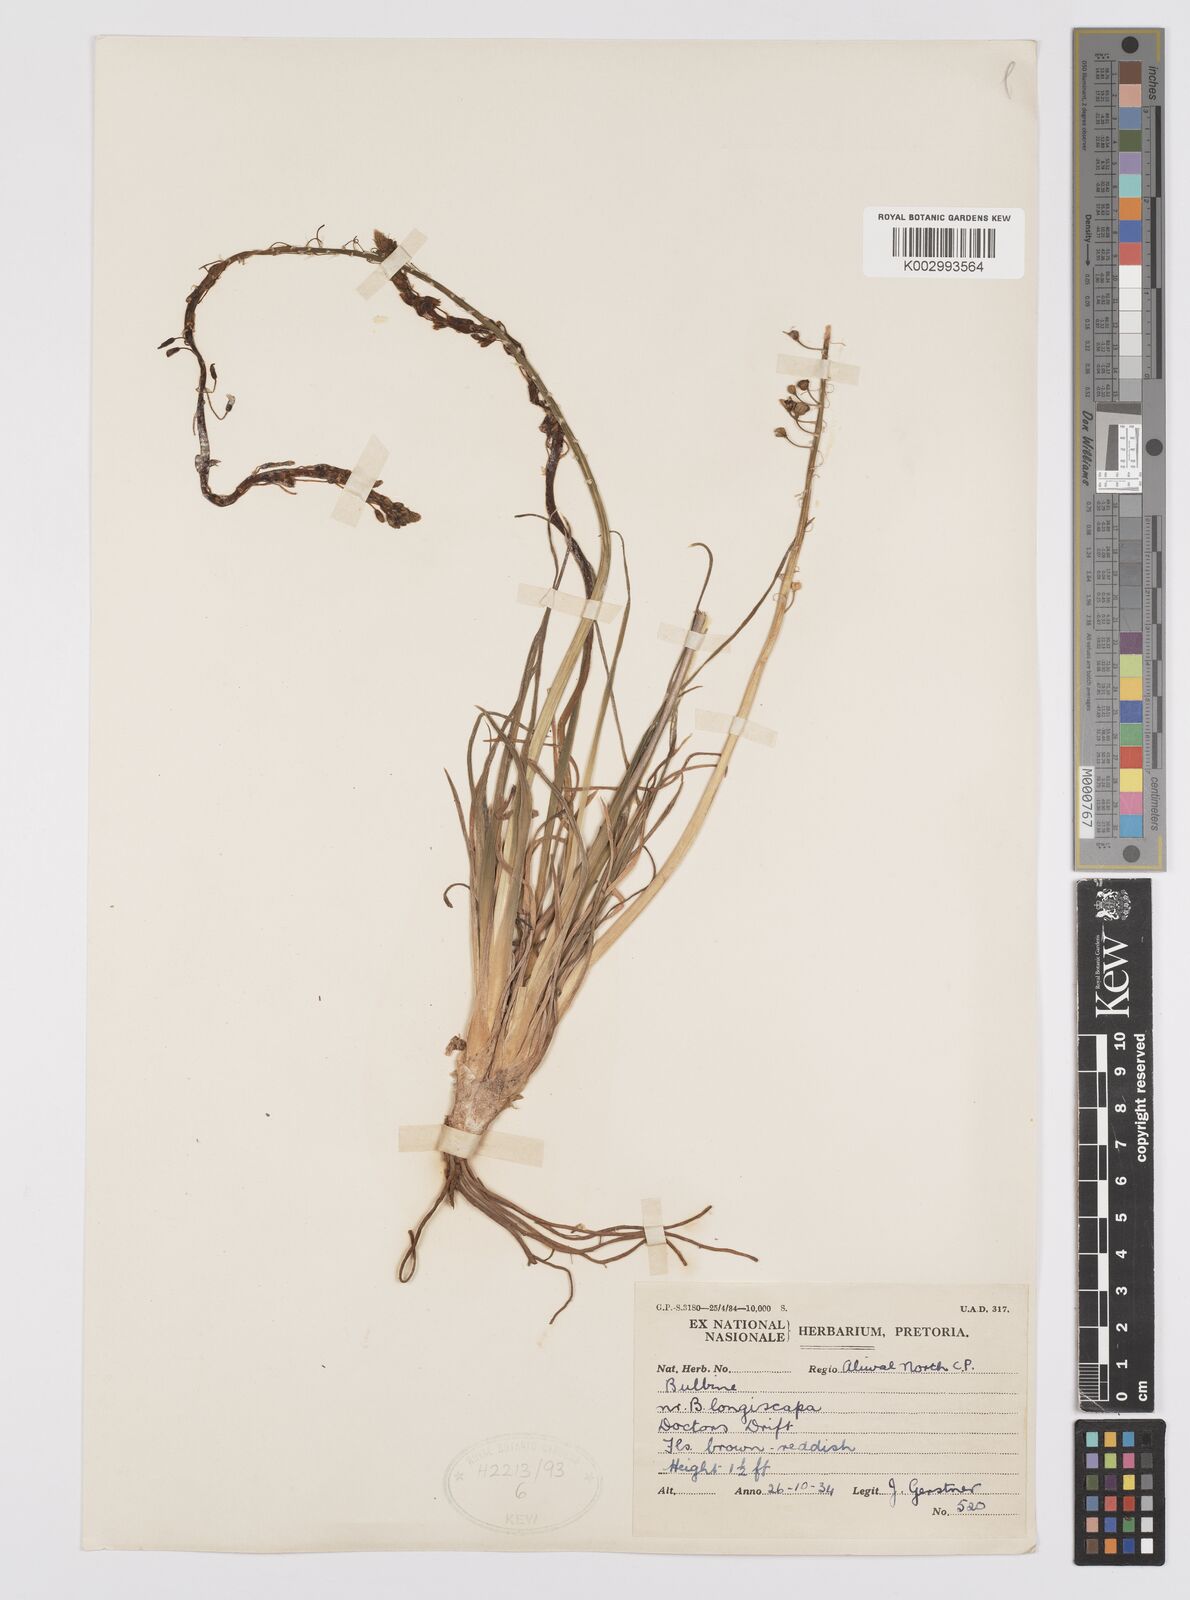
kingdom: Plantae
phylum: Tracheophyta
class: Liliopsida
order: Asparagales
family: Asphodelaceae
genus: Bulbine
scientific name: Bulbine asphodeloides
